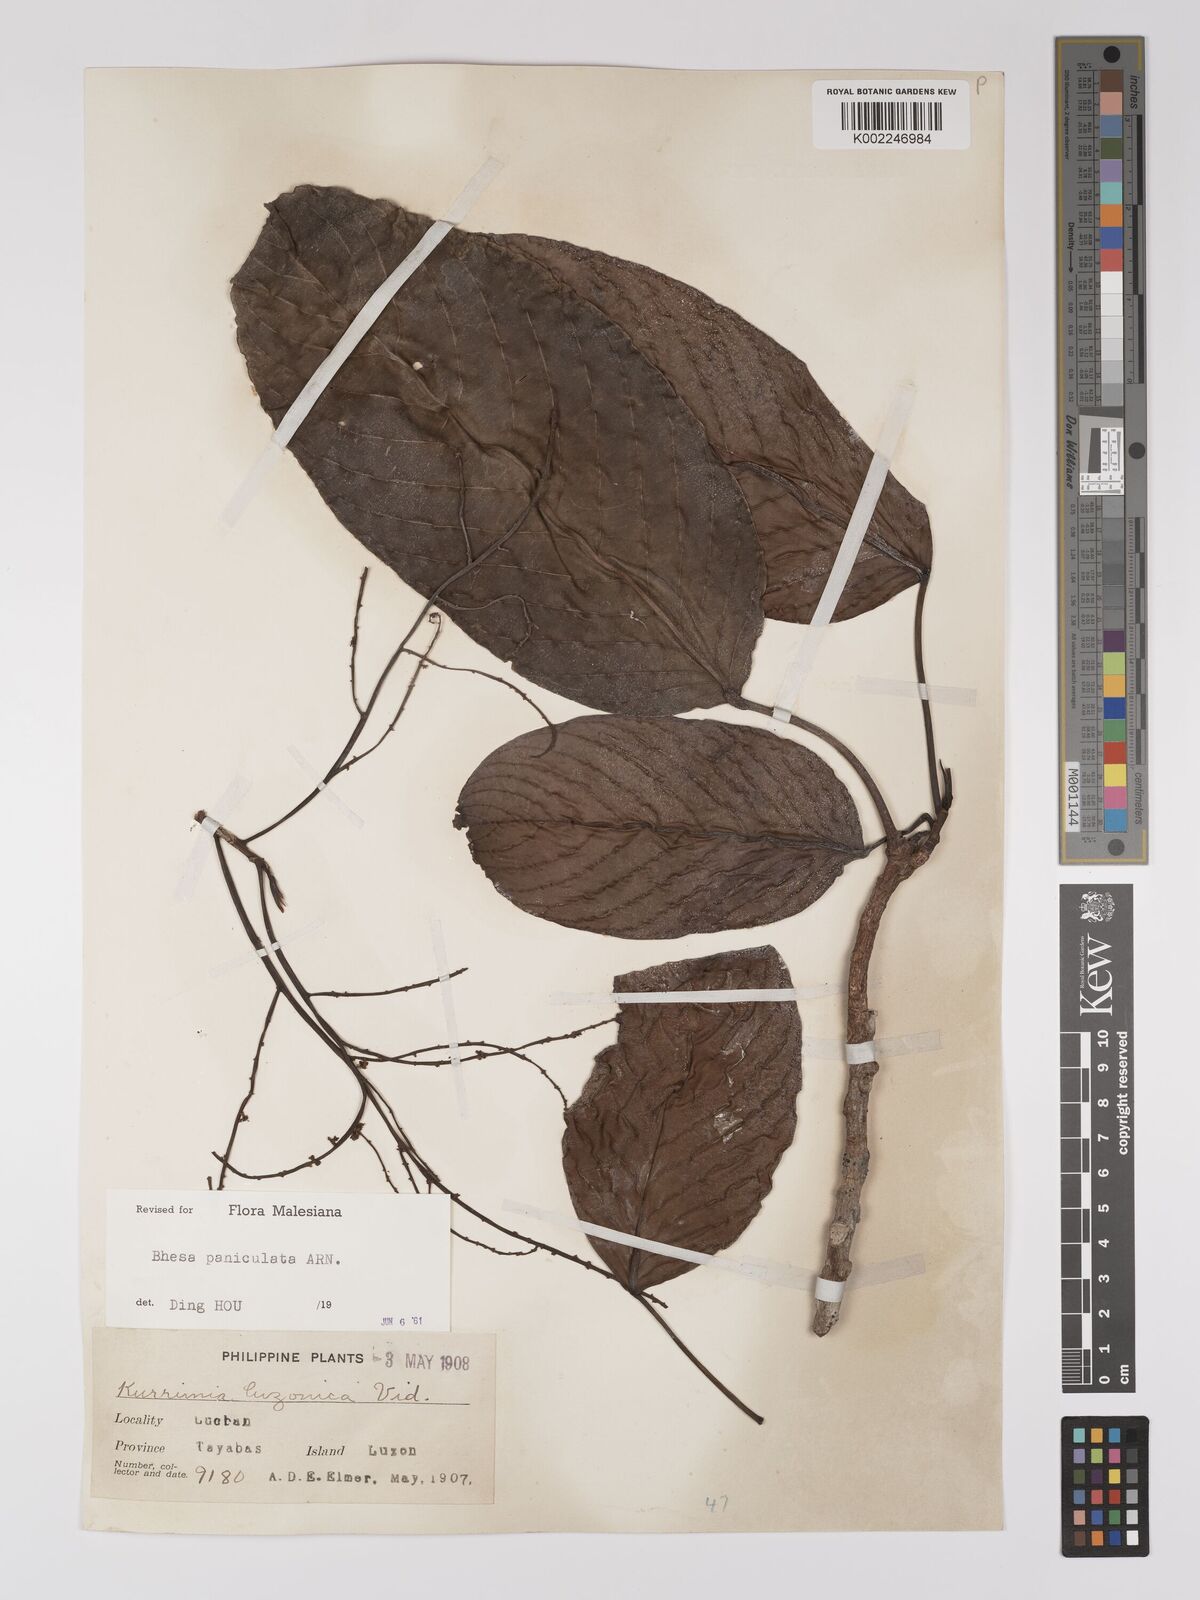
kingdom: Plantae
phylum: Tracheophyta
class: Magnoliopsida
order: Malpighiales
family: Centroplacaceae
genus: Bhesa
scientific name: Bhesa paniculata
